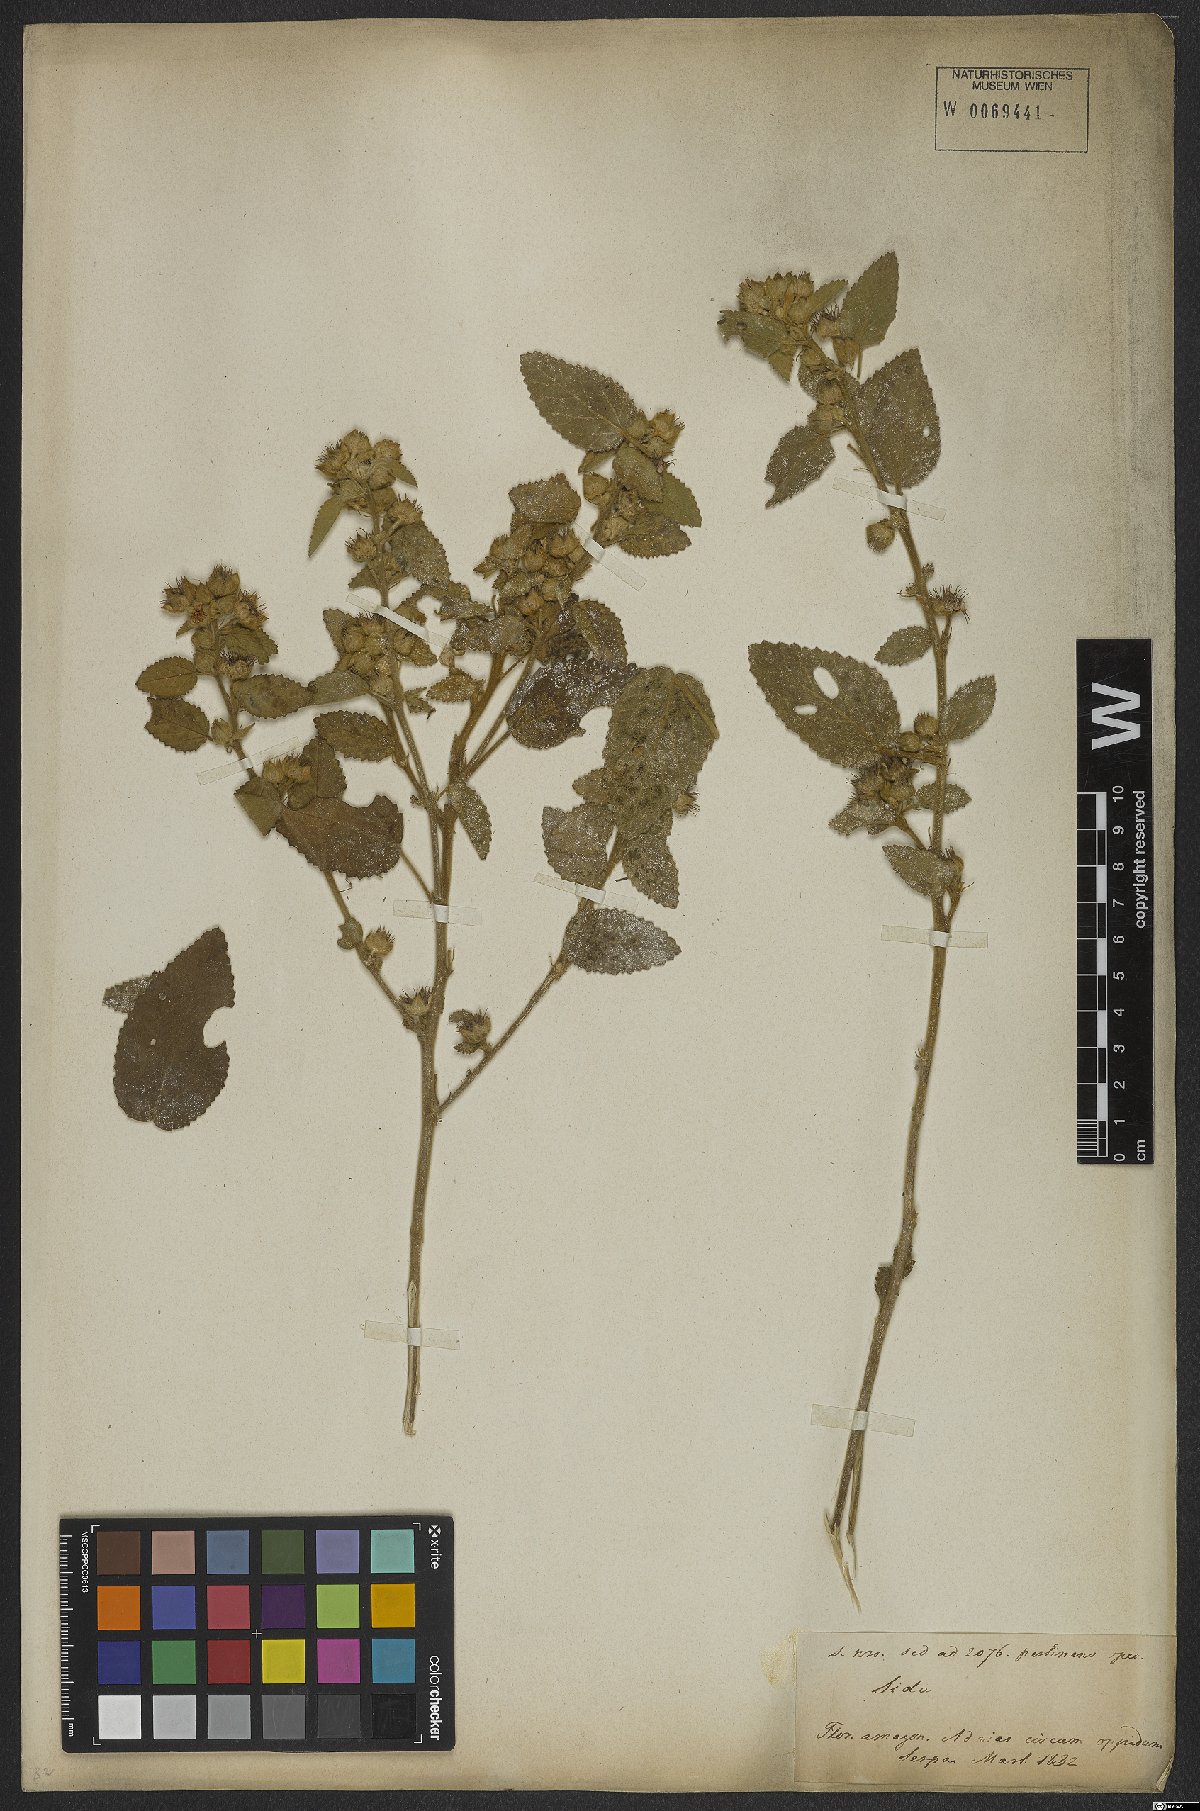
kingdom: Plantae
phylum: Tracheophyta
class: Magnoliopsida
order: Malvales
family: Malvaceae
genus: Sida
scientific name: Sida cordifolia
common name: Ilima
